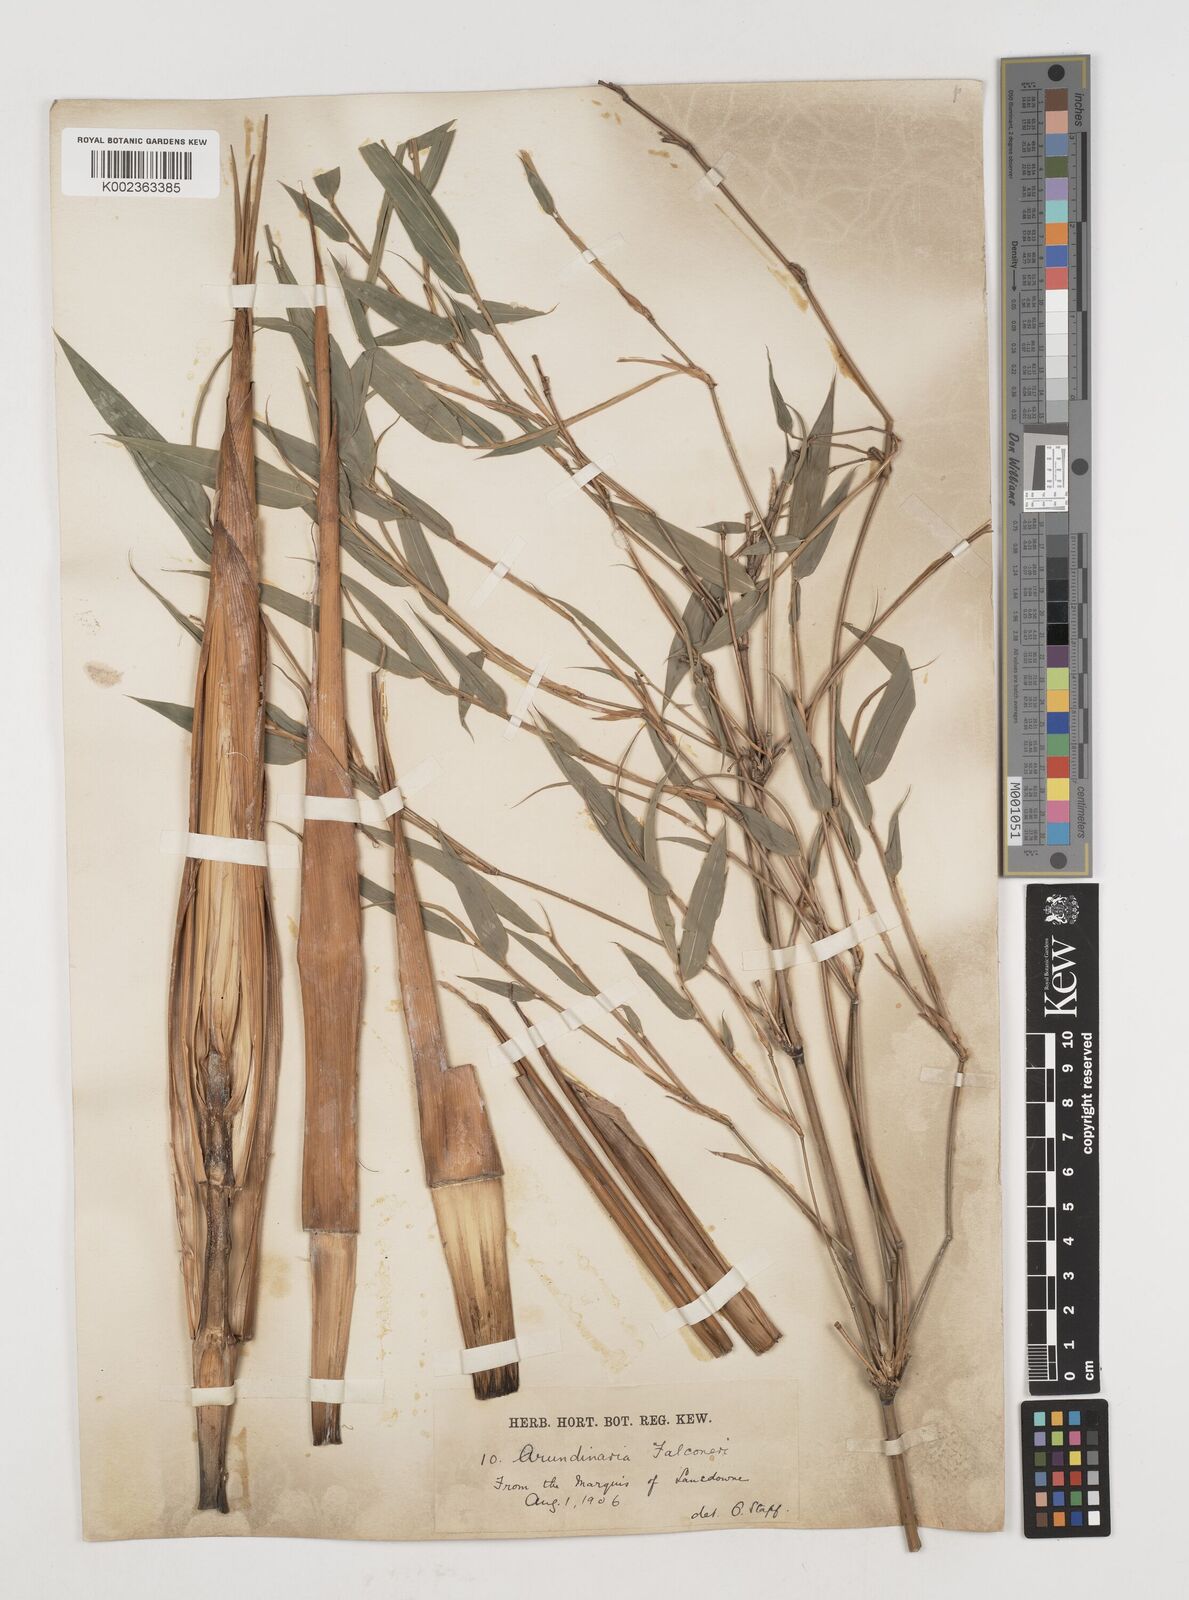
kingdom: Plantae
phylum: Tracheophyta
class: Liliopsida
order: Poales
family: Poaceae
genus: Himalayacalamus
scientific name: Himalayacalamus
